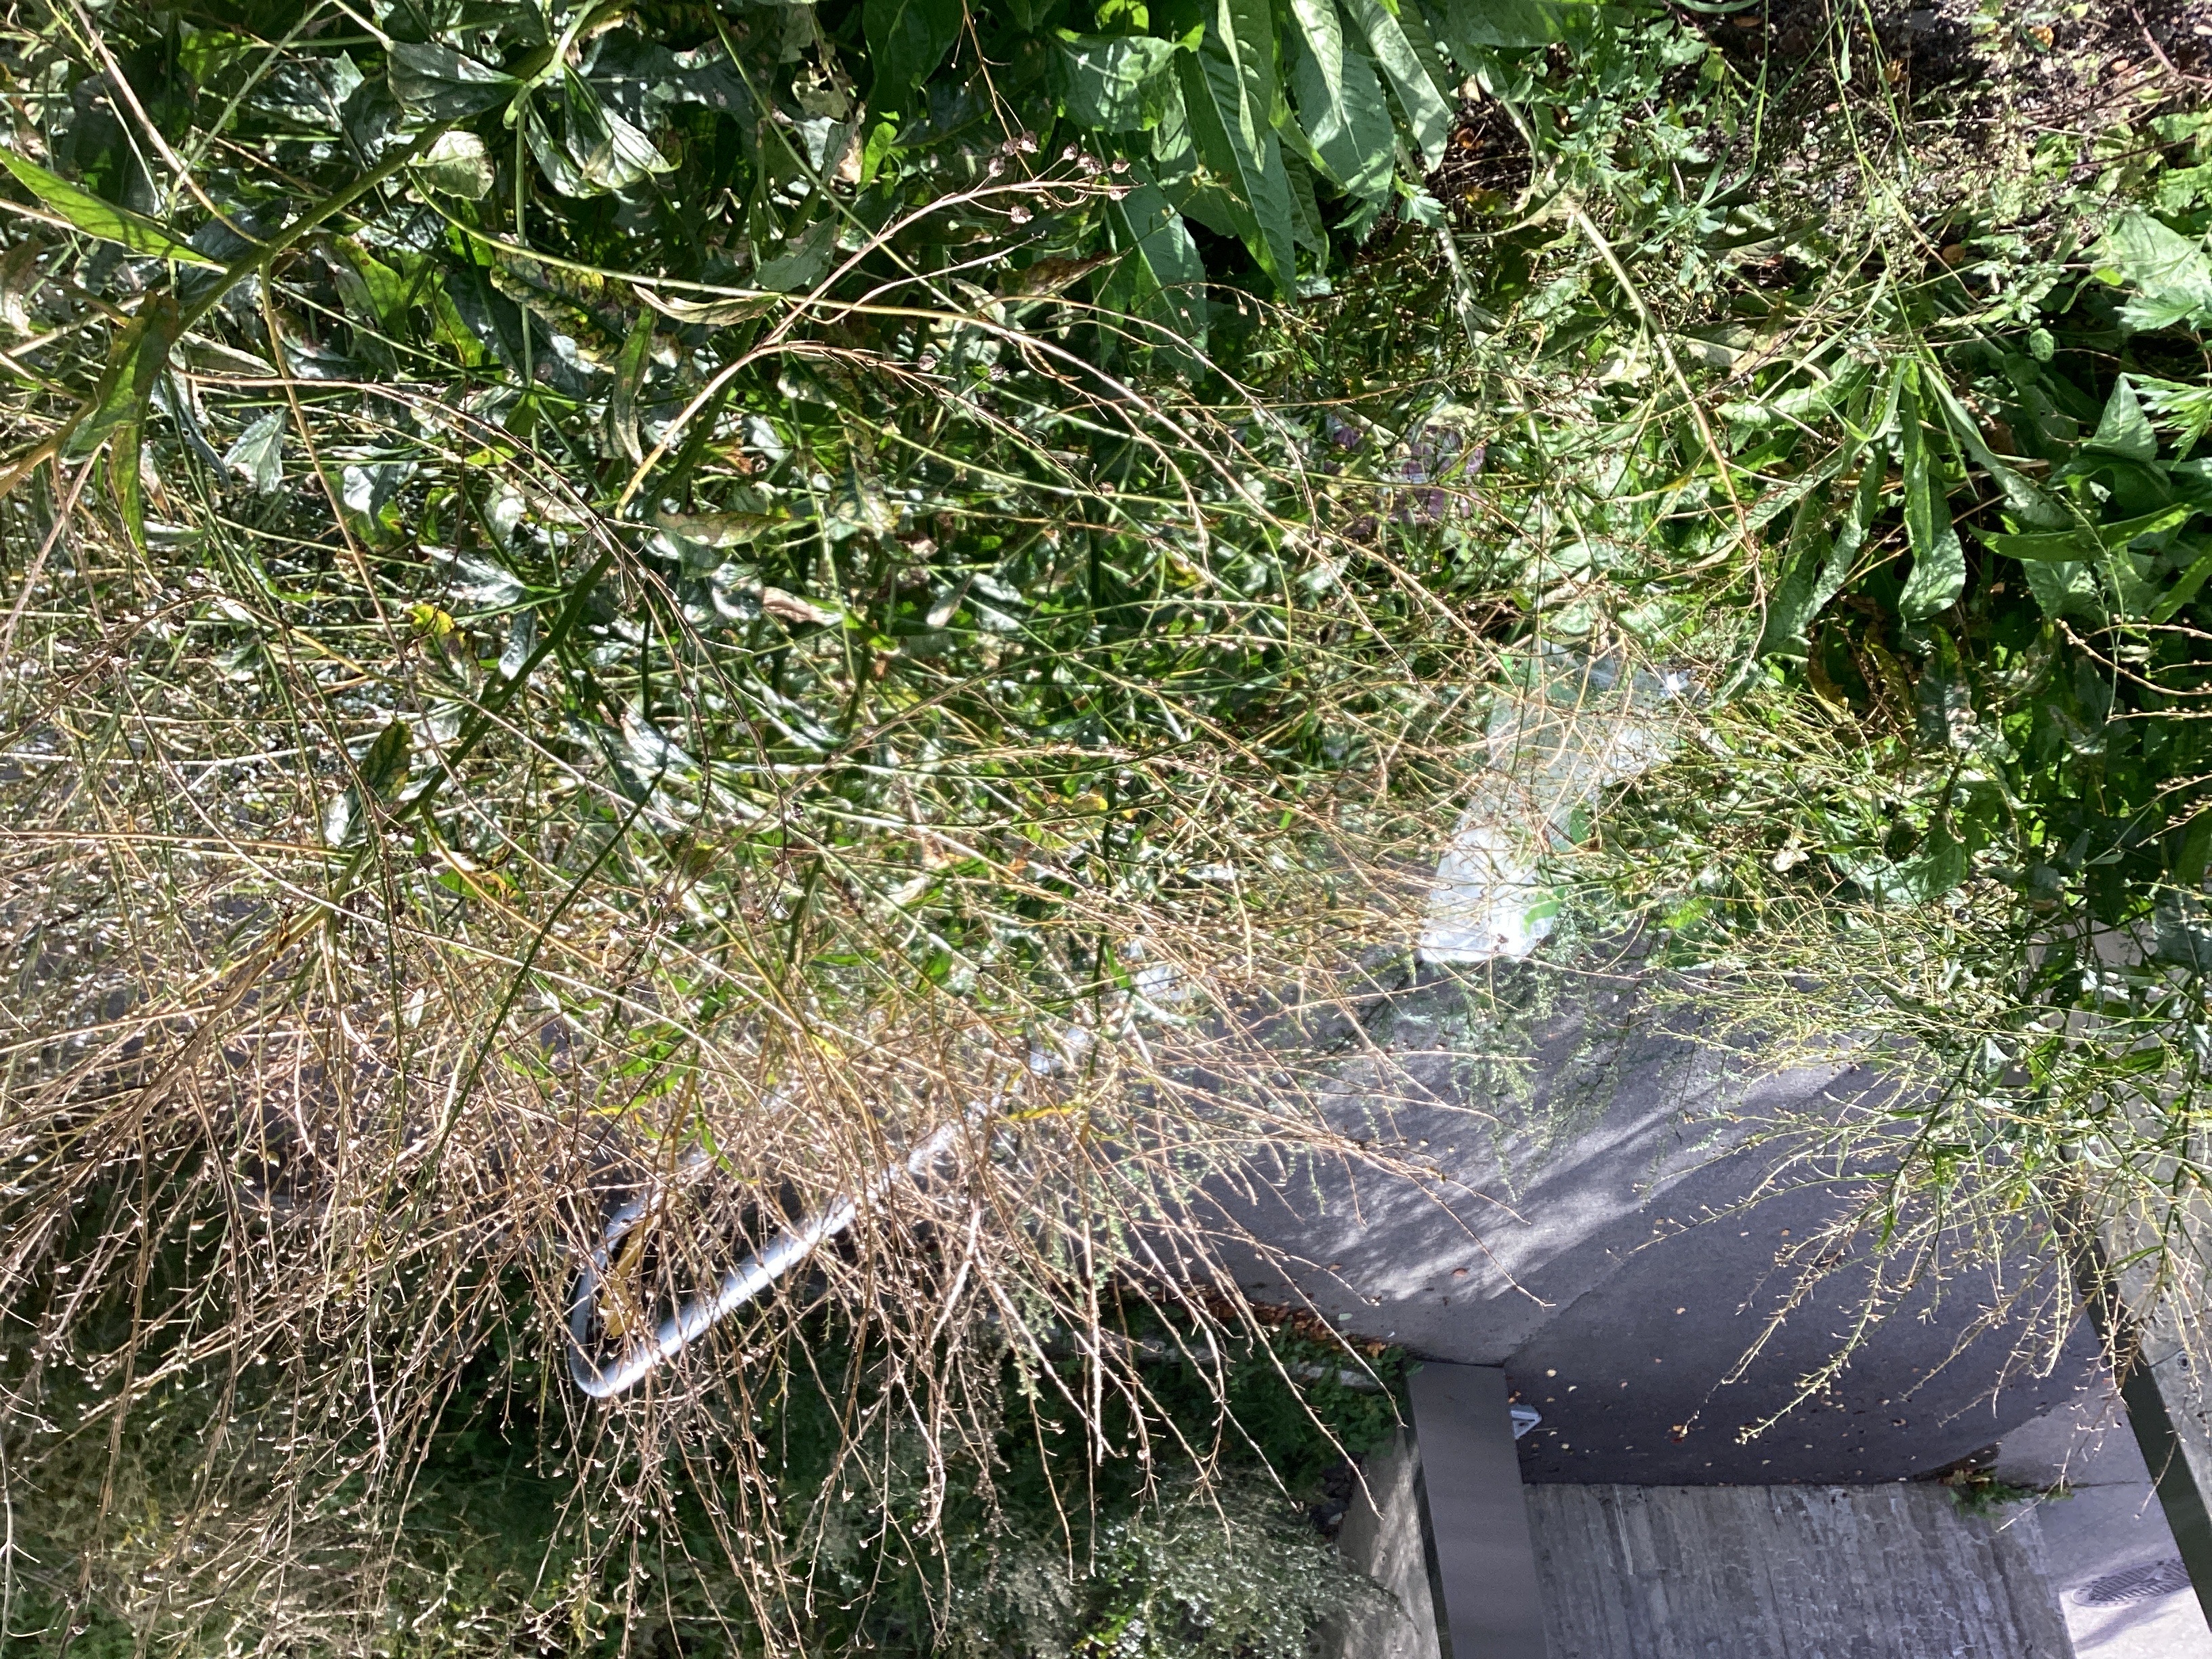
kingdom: Plantae
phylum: Tracheophyta
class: Magnoliopsida
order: Brassicales
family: Brassicaceae
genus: Bunias
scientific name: Bunias orientalis
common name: russekål
